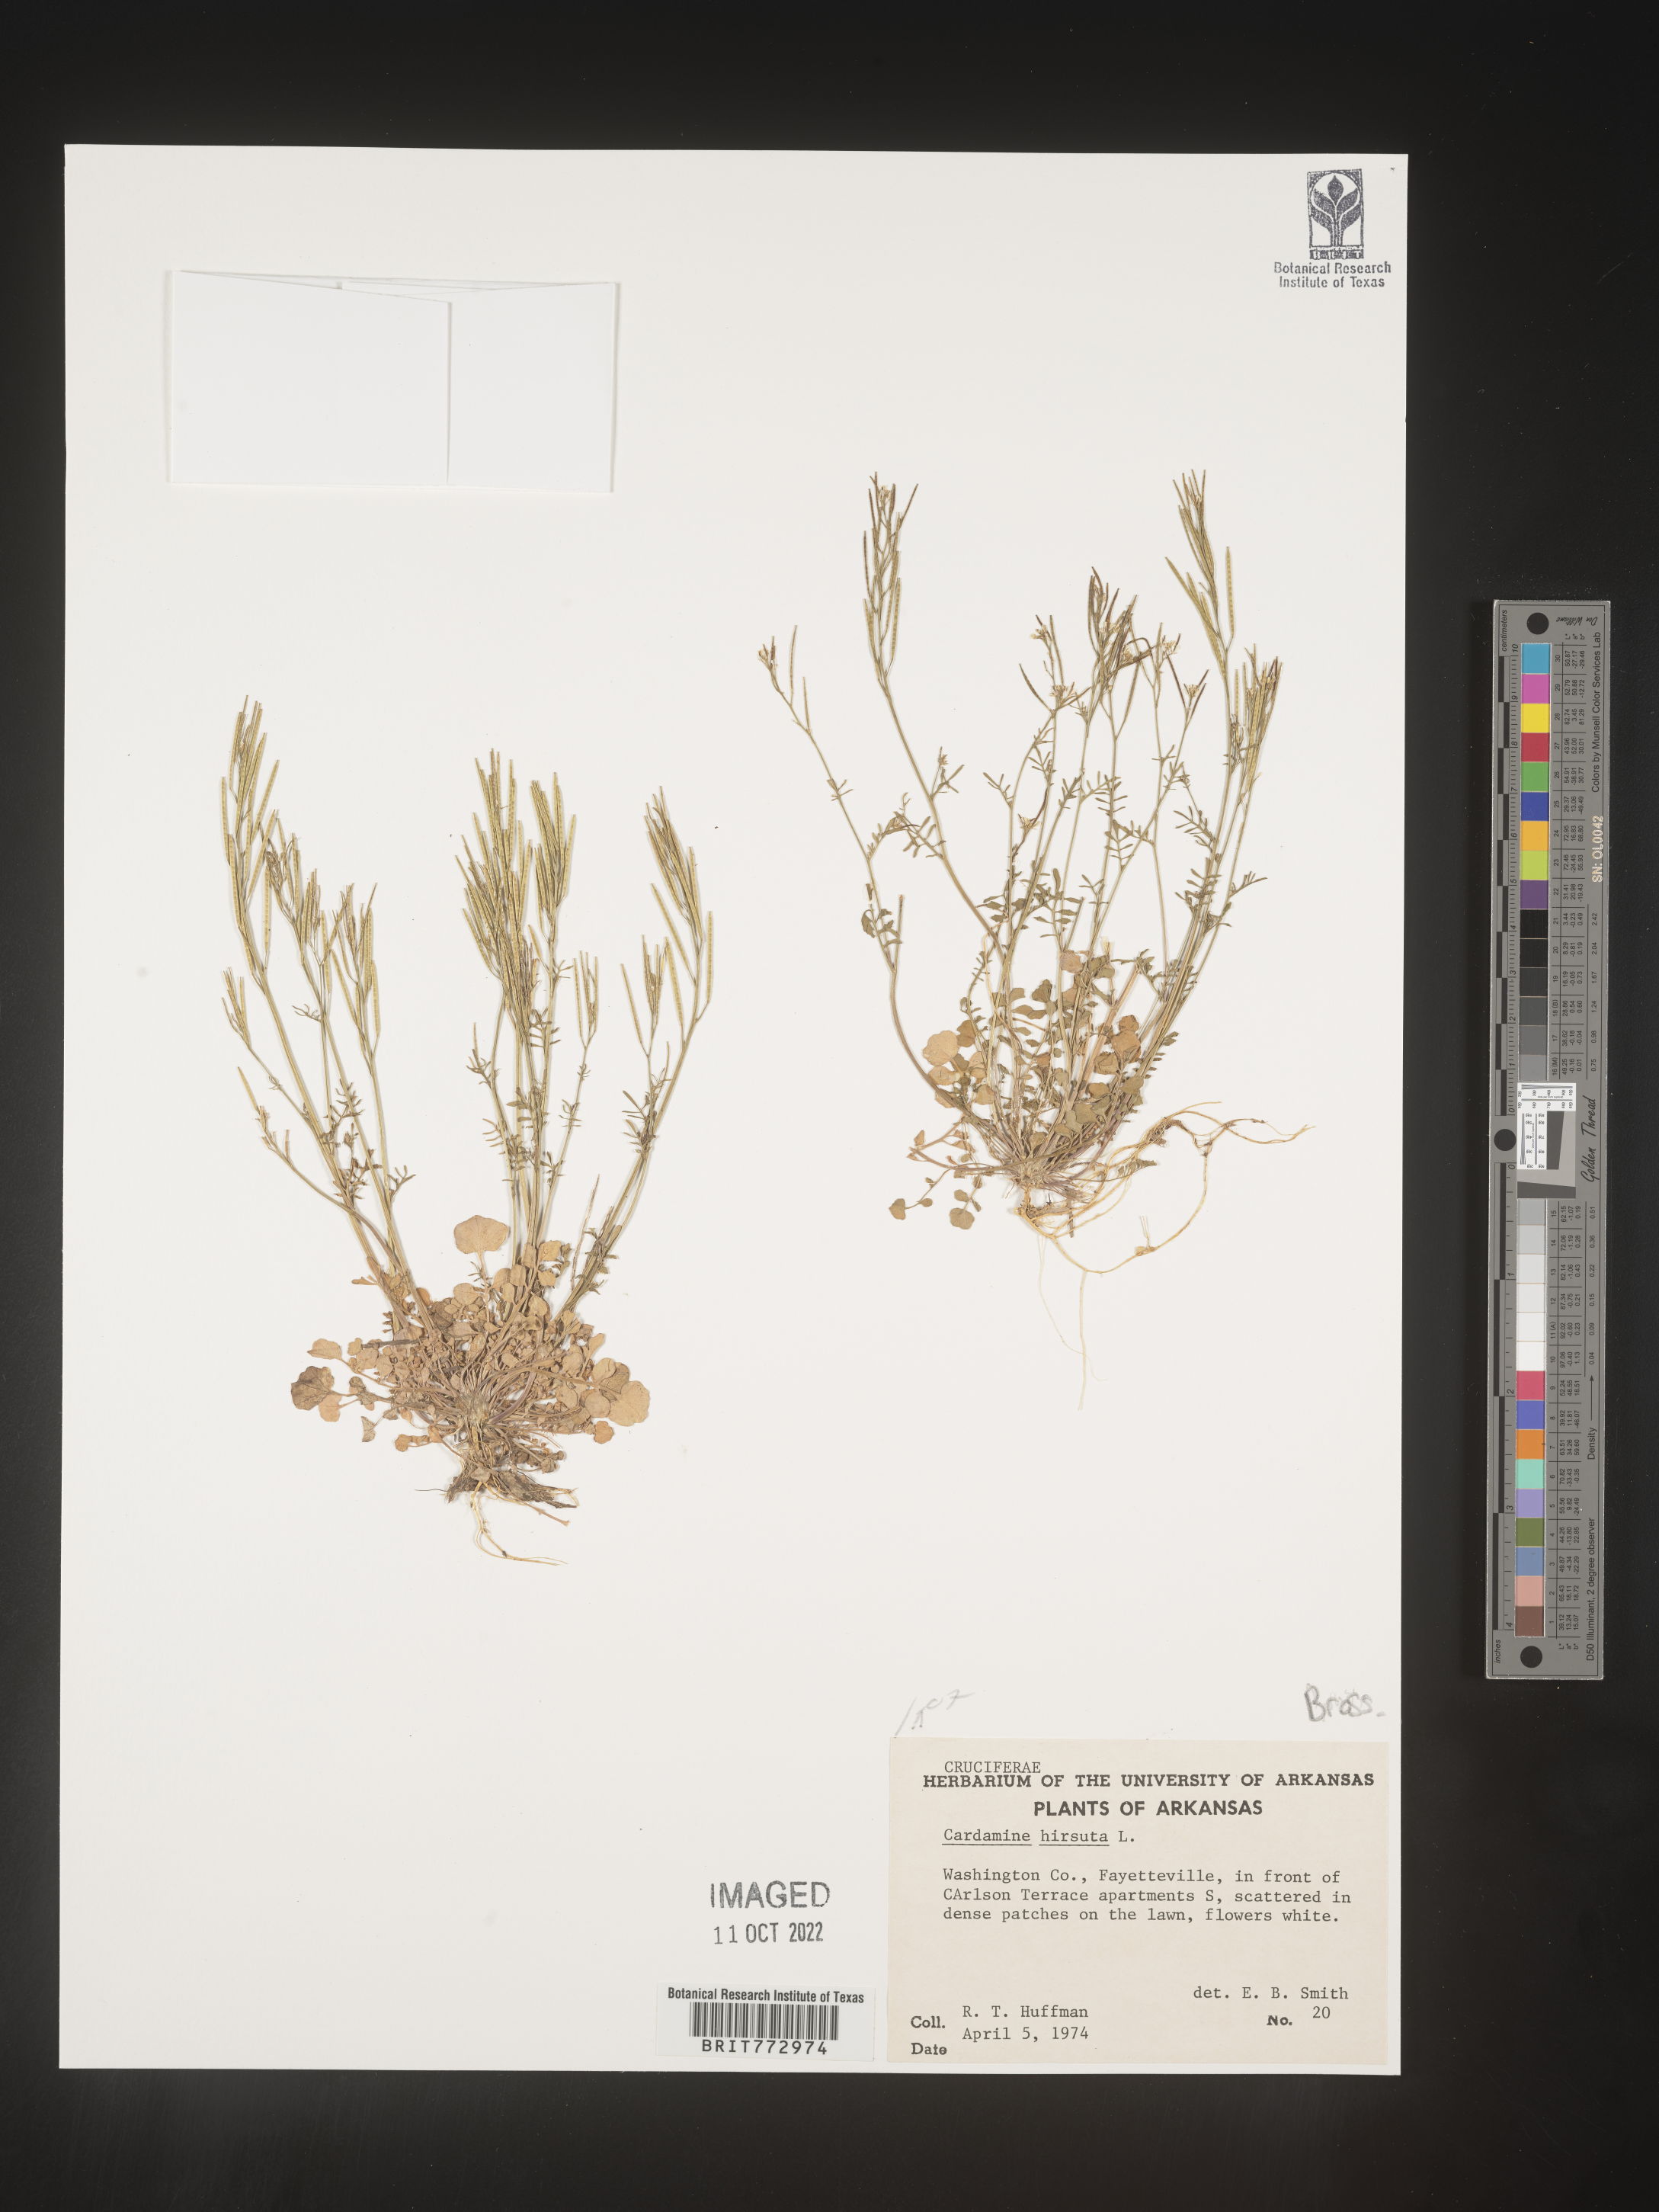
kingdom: Plantae
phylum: Tracheophyta
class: Magnoliopsida
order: Brassicales
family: Brassicaceae
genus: Cardamine
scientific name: Cardamine hirsuta
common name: Hairy bittercress
